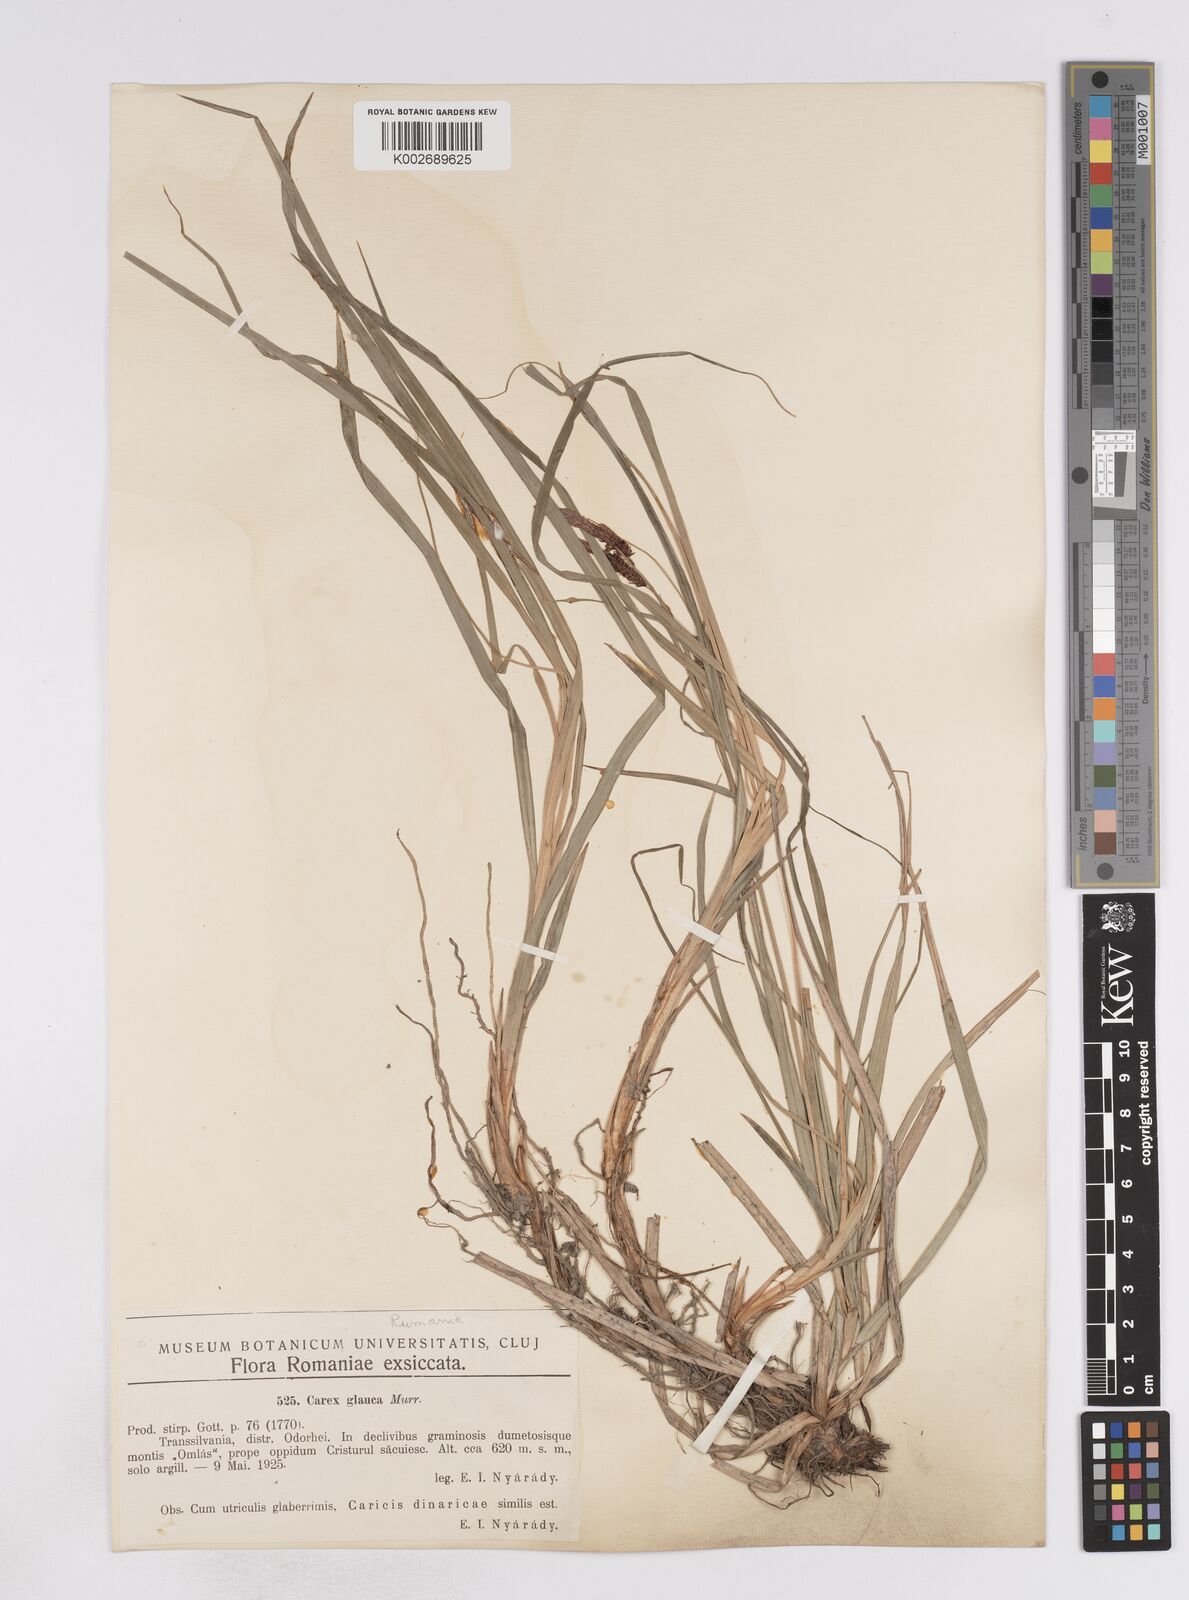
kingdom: Plantae
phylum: Tracheophyta
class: Liliopsida
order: Poales
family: Cyperaceae
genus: Carex
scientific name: Carex flacca
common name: Glaucous sedge
